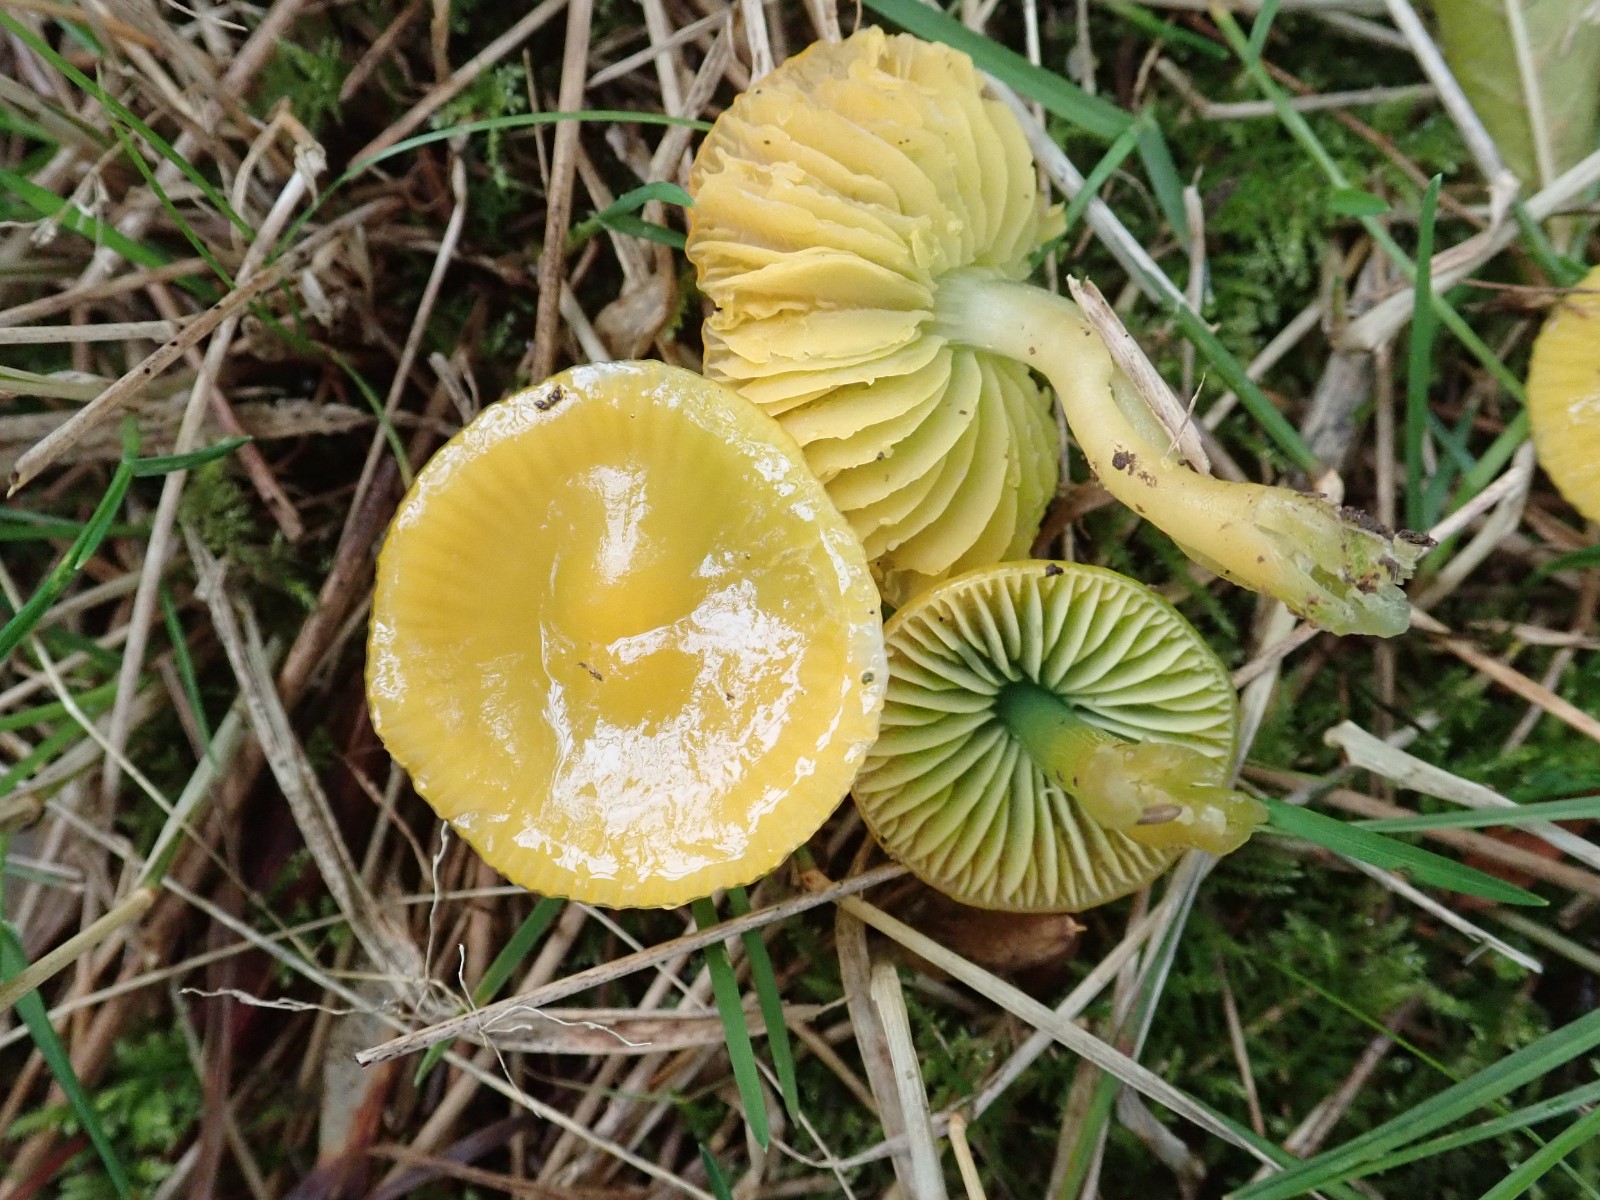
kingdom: Fungi
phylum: Basidiomycota
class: Agaricomycetes
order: Agaricales
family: Hygrophoraceae
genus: Gliophorus
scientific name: Gliophorus psittacinus
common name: papegøje-vokshat
